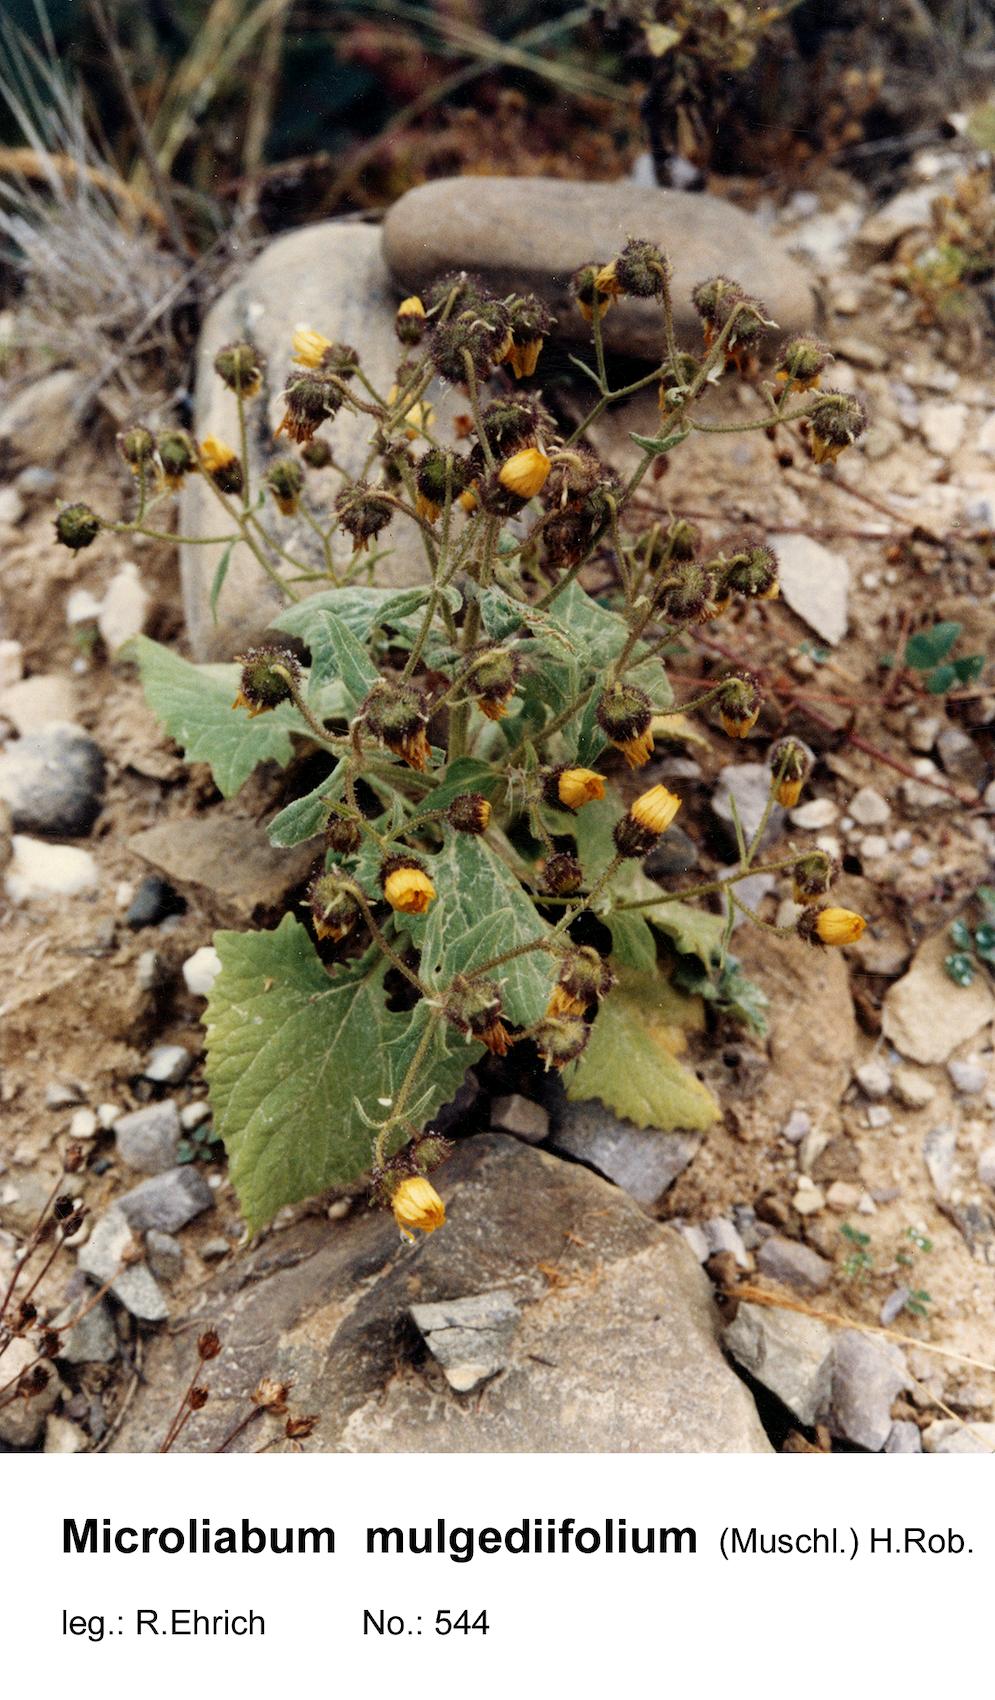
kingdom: Plantae
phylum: Tracheophyta
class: Magnoliopsida
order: Asterales
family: Asteraceae
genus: Microliabum
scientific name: Microliabum mulgediifolium
